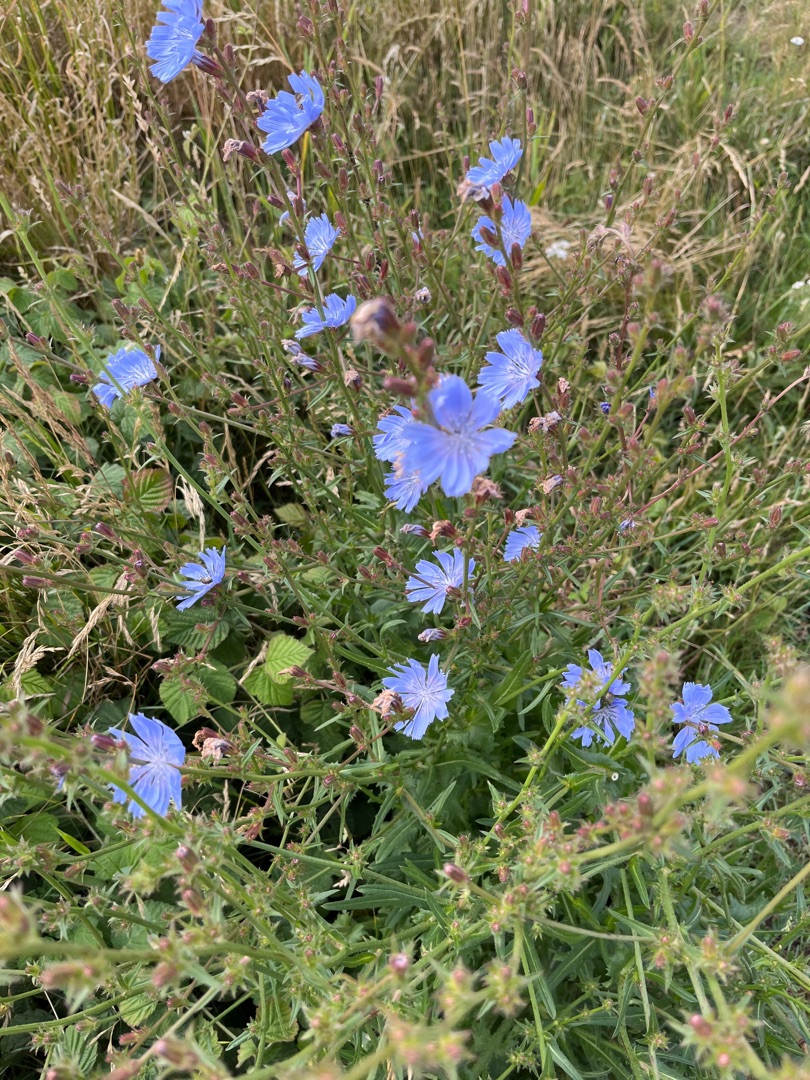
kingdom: Plantae
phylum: Tracheophyta
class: Magnoliopsida
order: Asterales
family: Asteraceae
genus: Cichorium
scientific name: Cichorium intybus
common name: Cikorie
